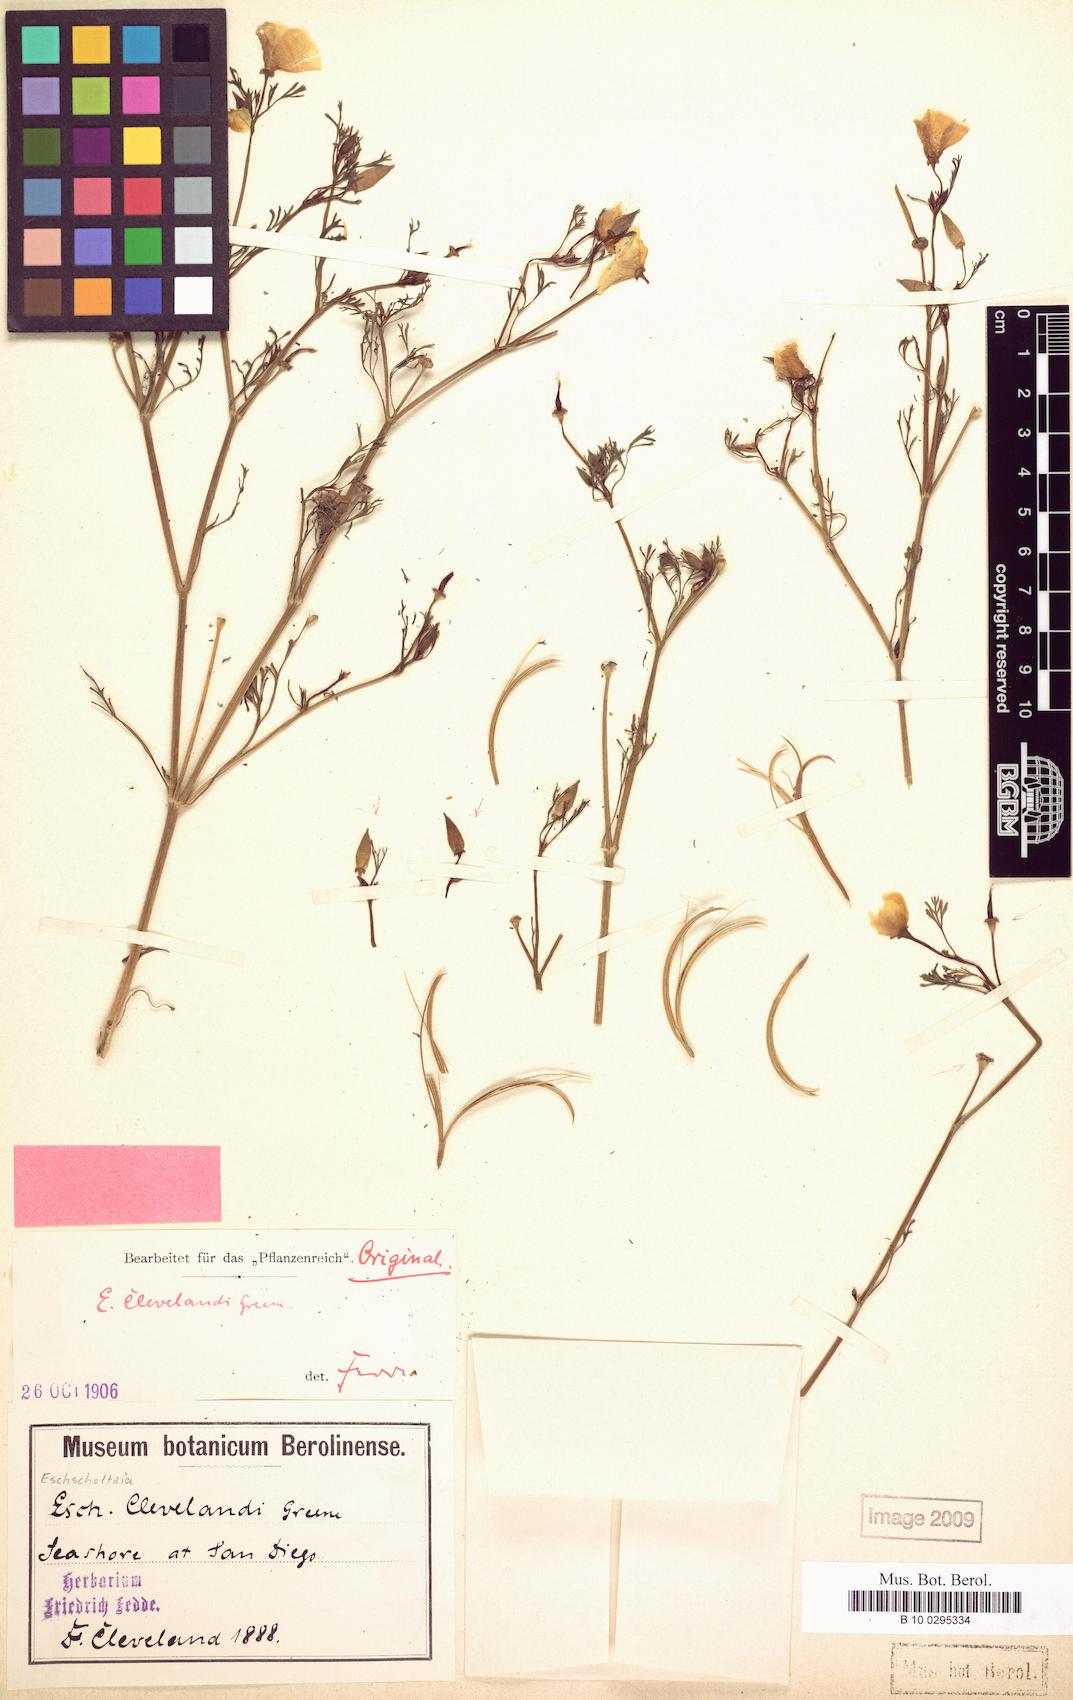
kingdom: Plantae
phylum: Tracheophyta
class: Magnoliopsida
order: Ranunculales
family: Papaveraceae
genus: Eschscholzia
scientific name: Eschscholzia californica
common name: California poppy
